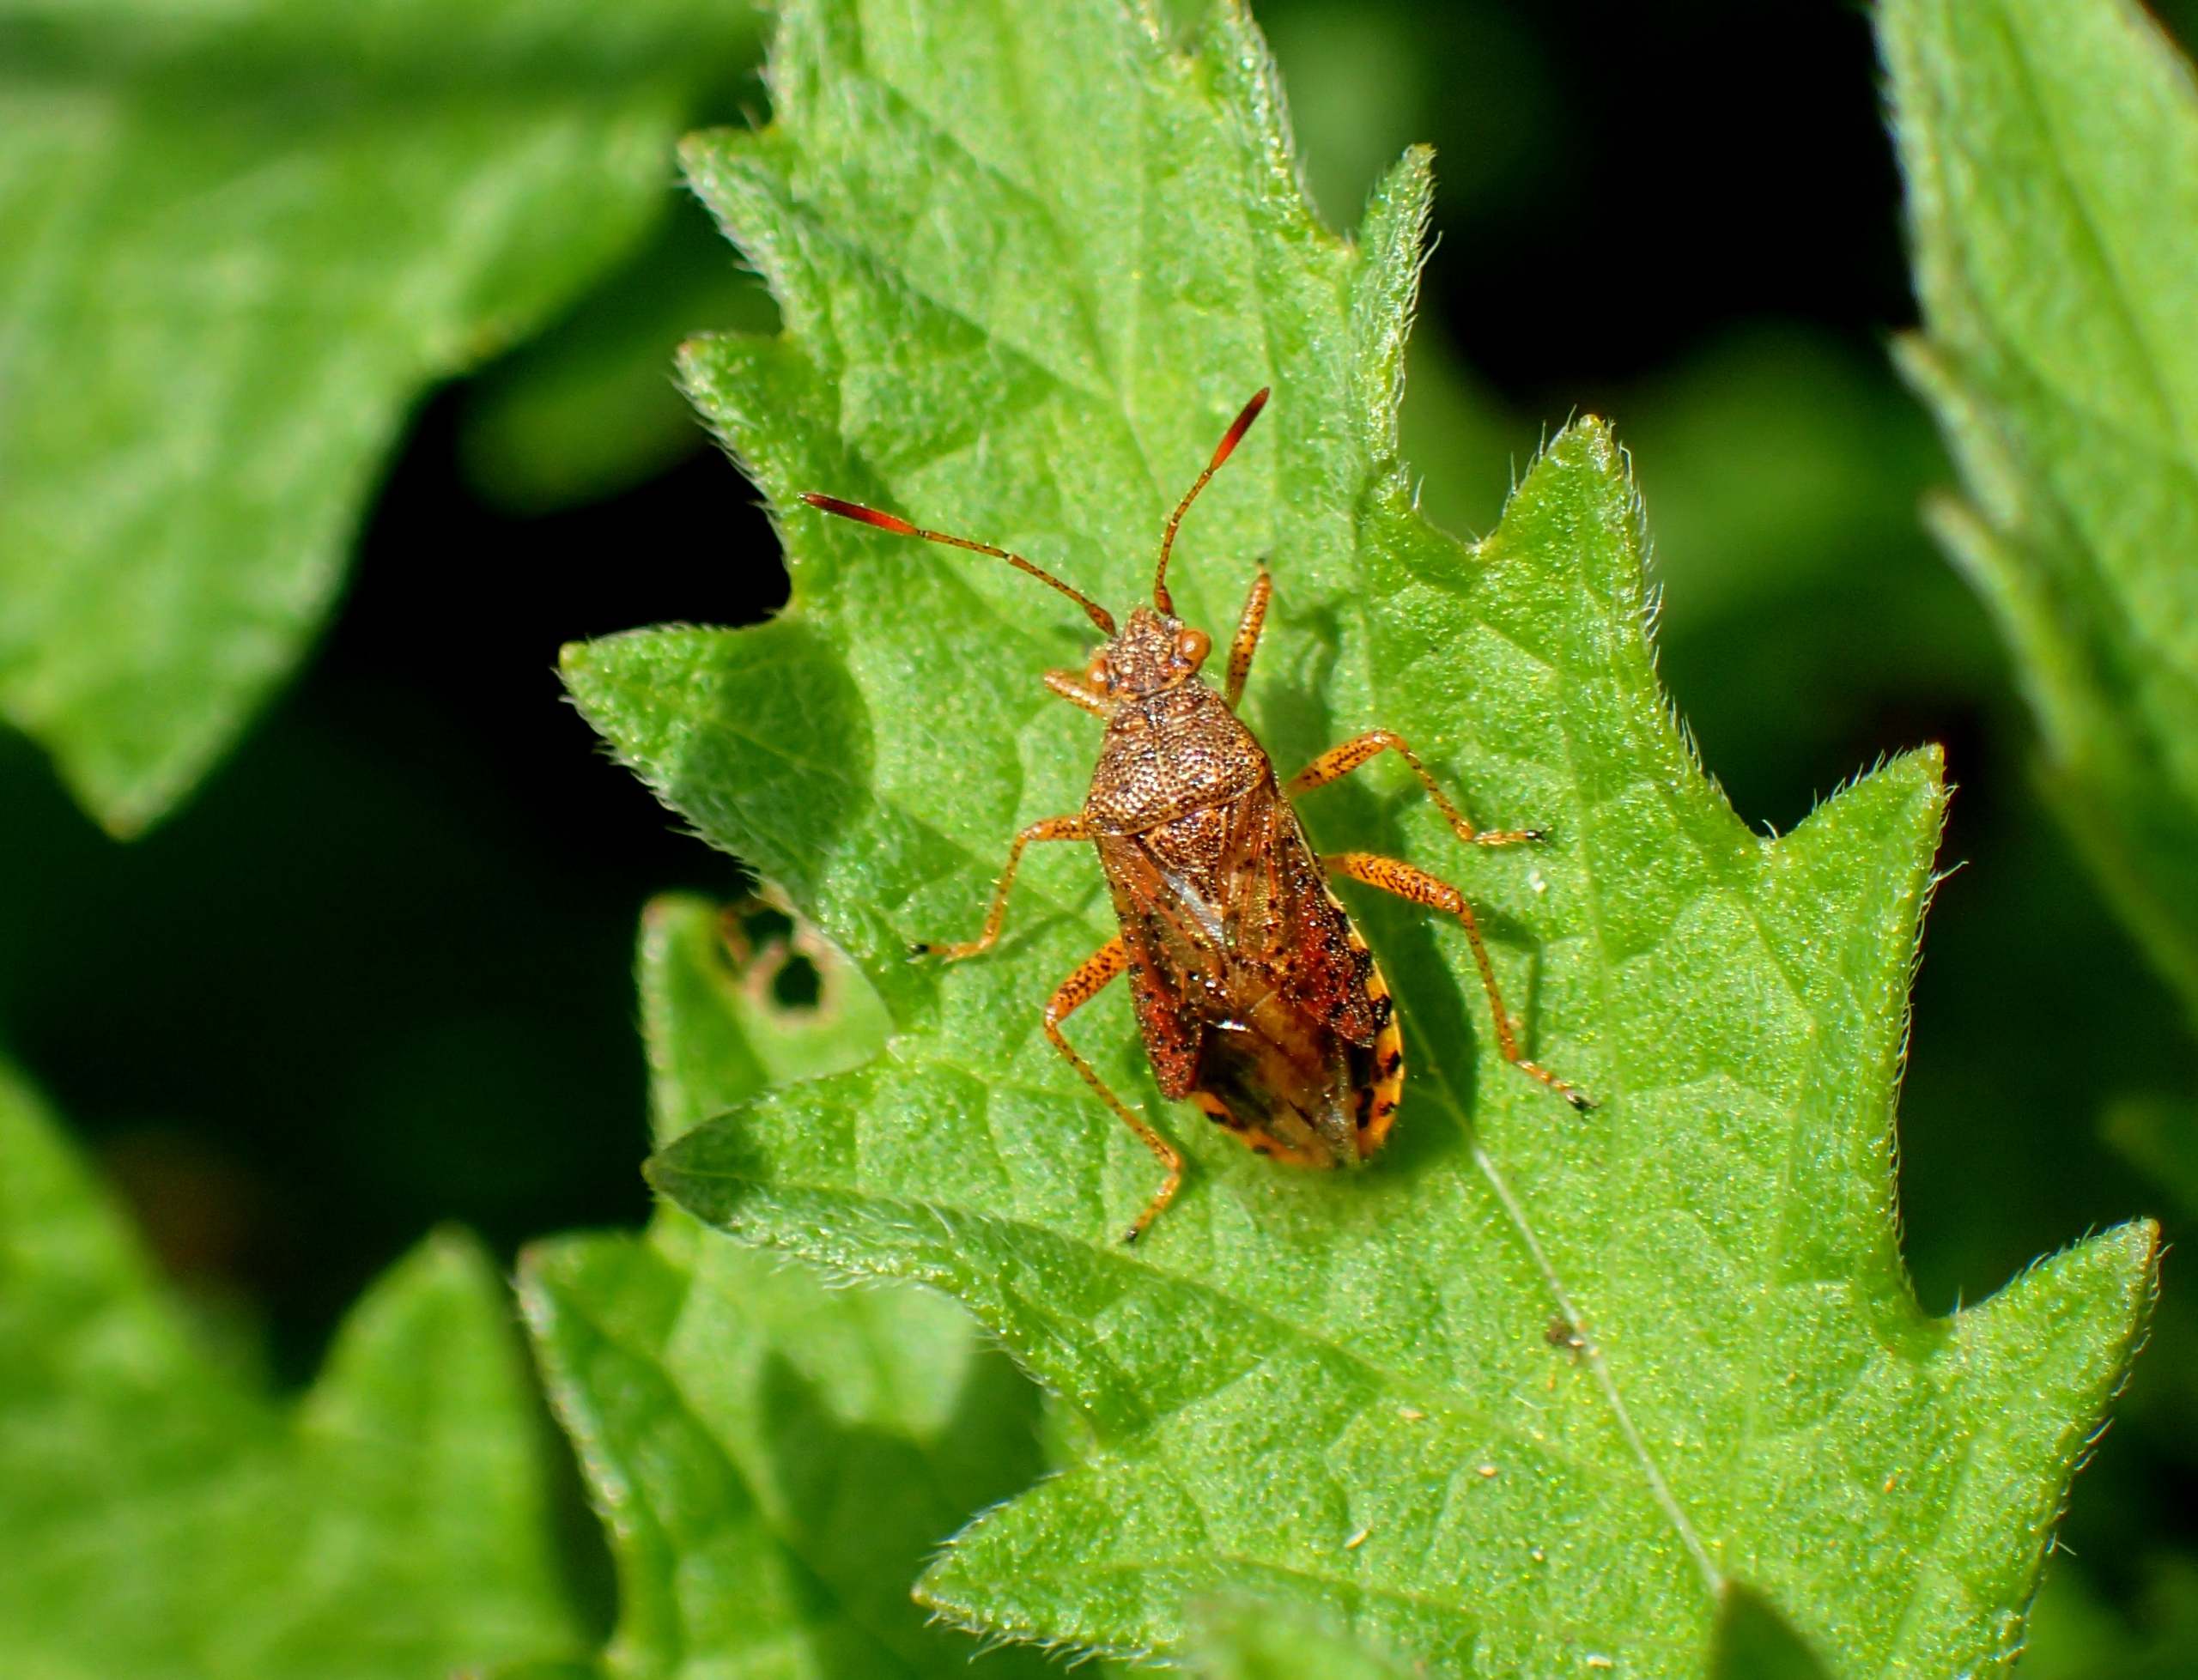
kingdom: Animalia
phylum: Arthropoda
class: Insecta
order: Hemiptera
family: Rhopalidae
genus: Rhopalus
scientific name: Rhopalus maculatus
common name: Mosekanttæge
